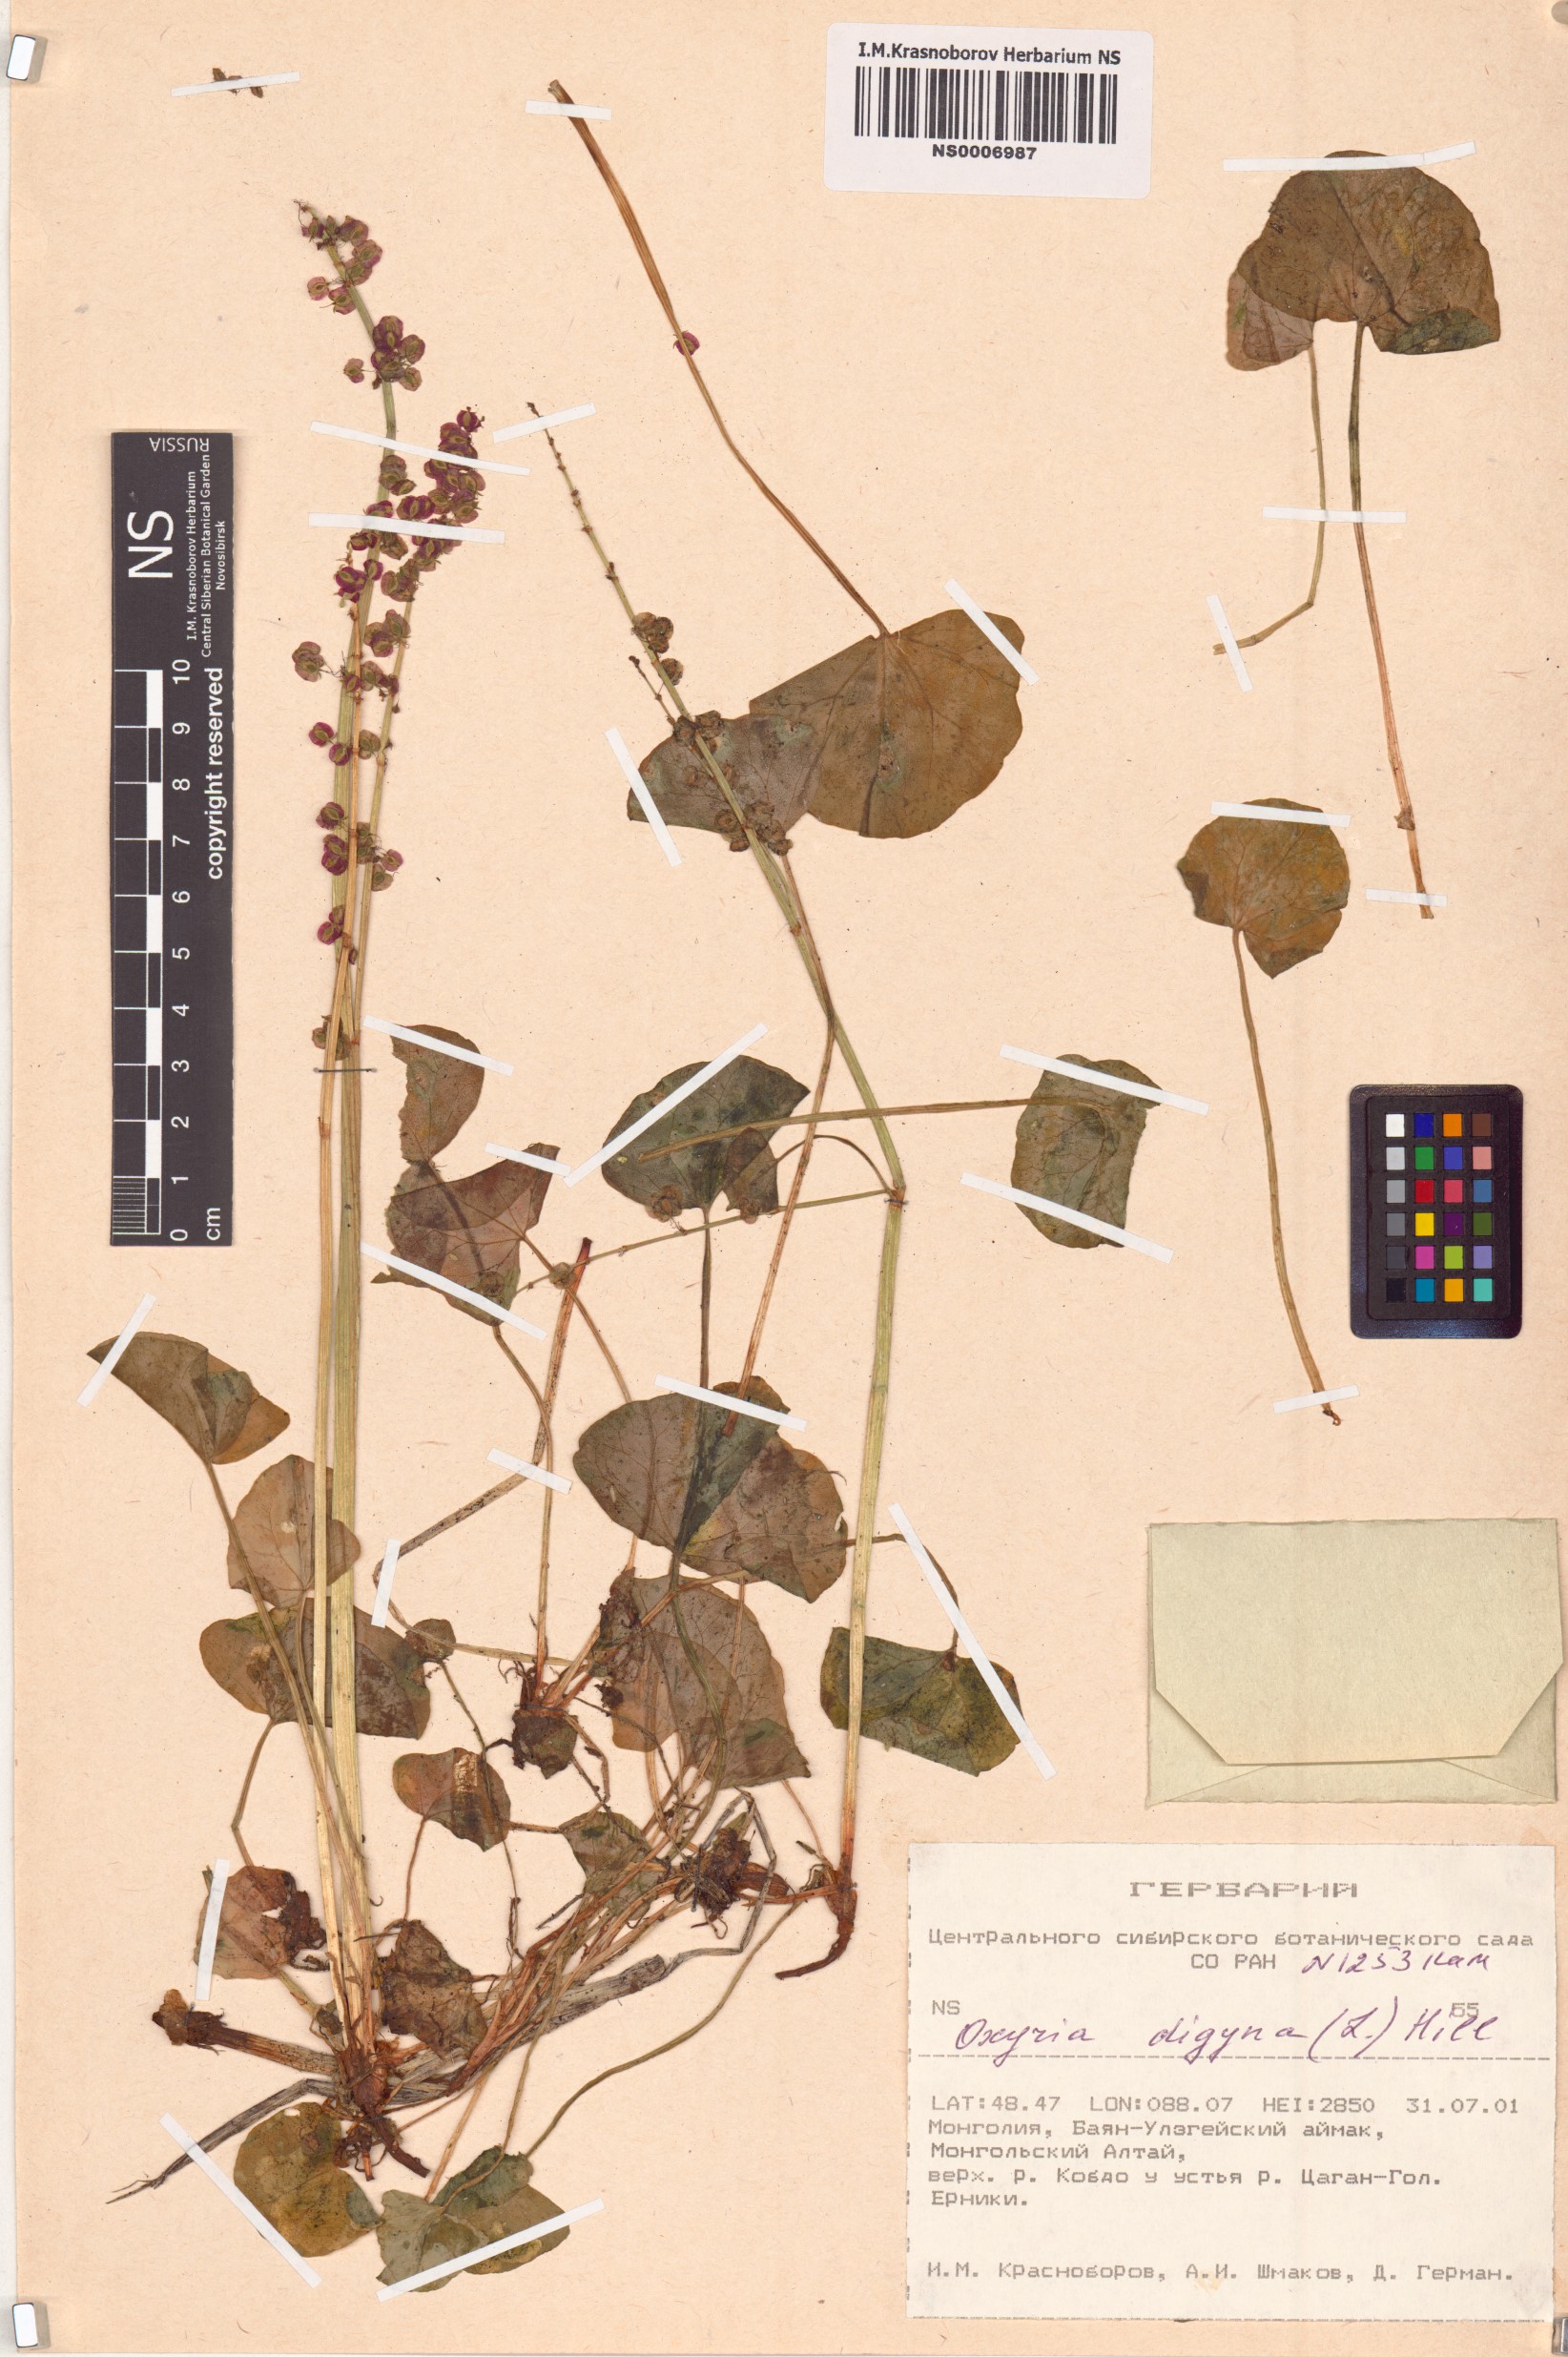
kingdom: Plantae
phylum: Tracheophyta
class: Magnoliopsida
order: Caryophyllales
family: Polygonaceae
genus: Oxyria
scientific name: Oxyria digyna
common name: Alpine mountain-sorrel
